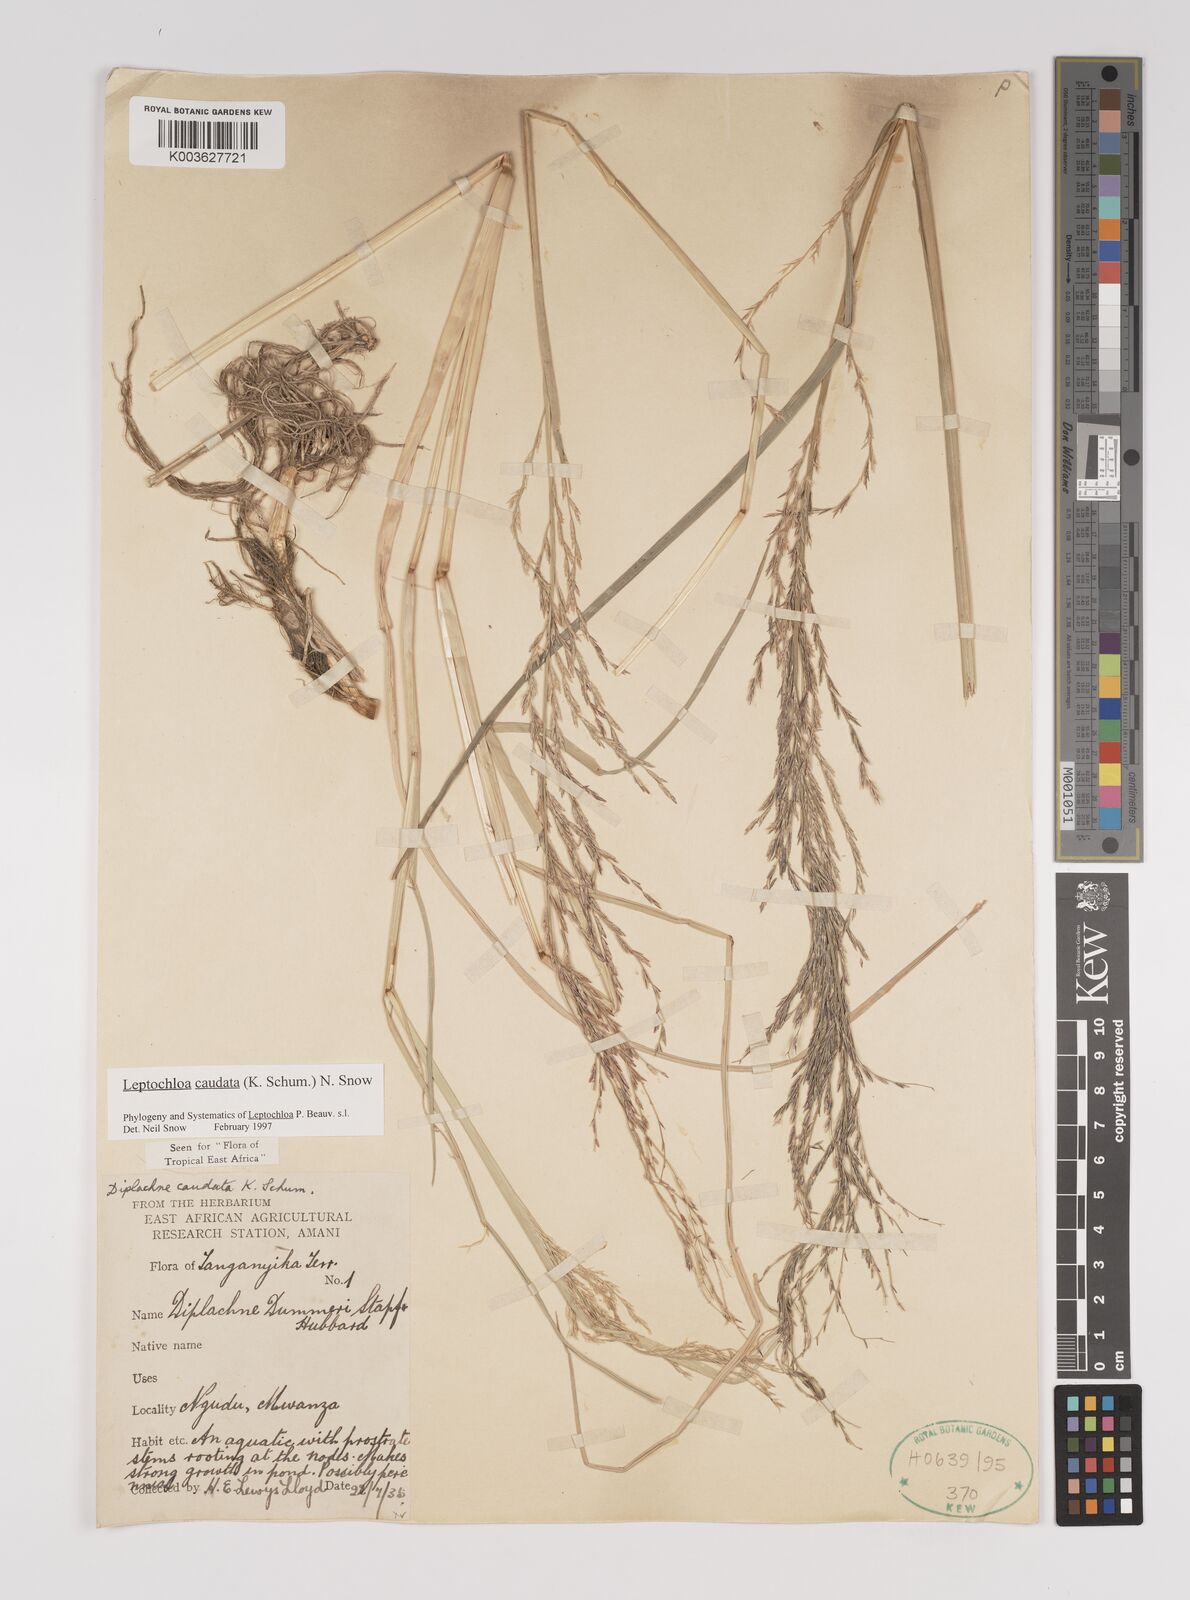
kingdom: Plantae
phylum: Tracheophyta
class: Liliopsida
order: Poales
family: Poaceae
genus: Leptochloa
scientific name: Leptochloa caudata
